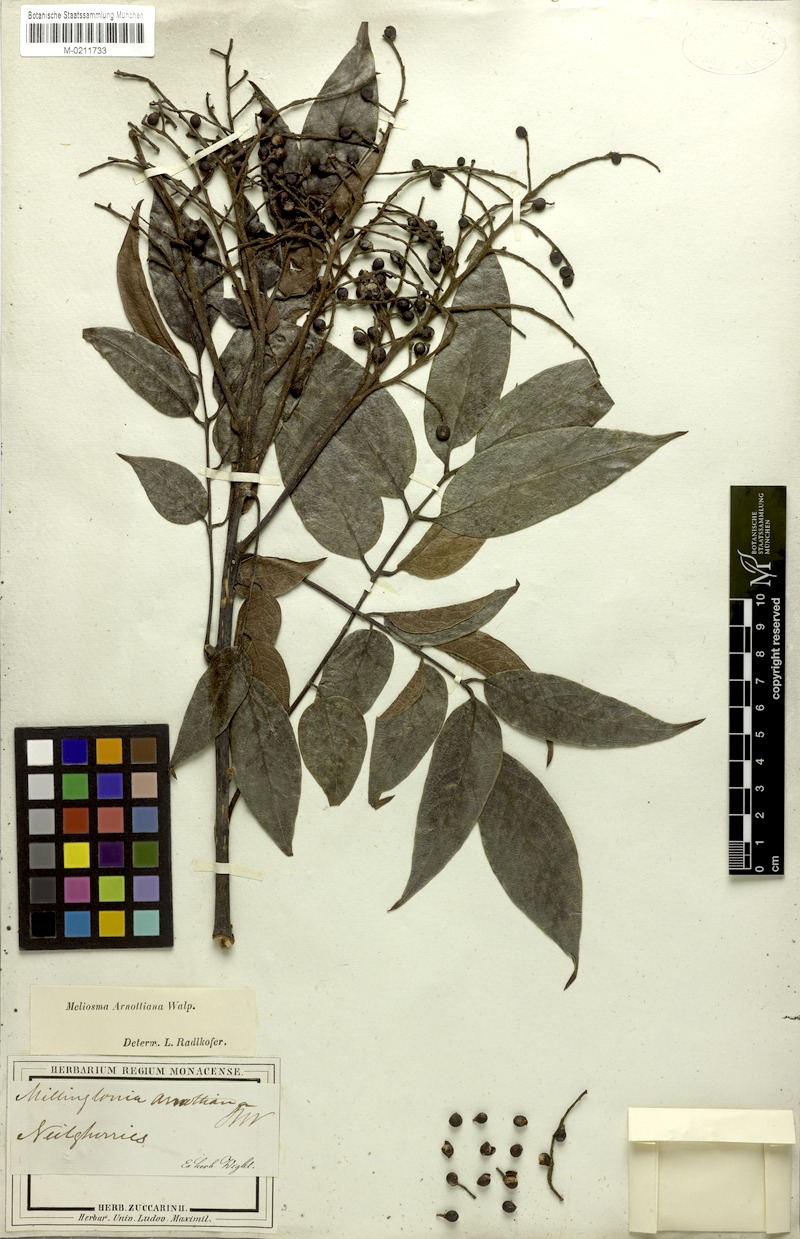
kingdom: Plantae
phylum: Tracheophyta
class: Magnoliopsida
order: Proteales
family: Sabiaceae
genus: Meliosma
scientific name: Meliosma arnottiana
